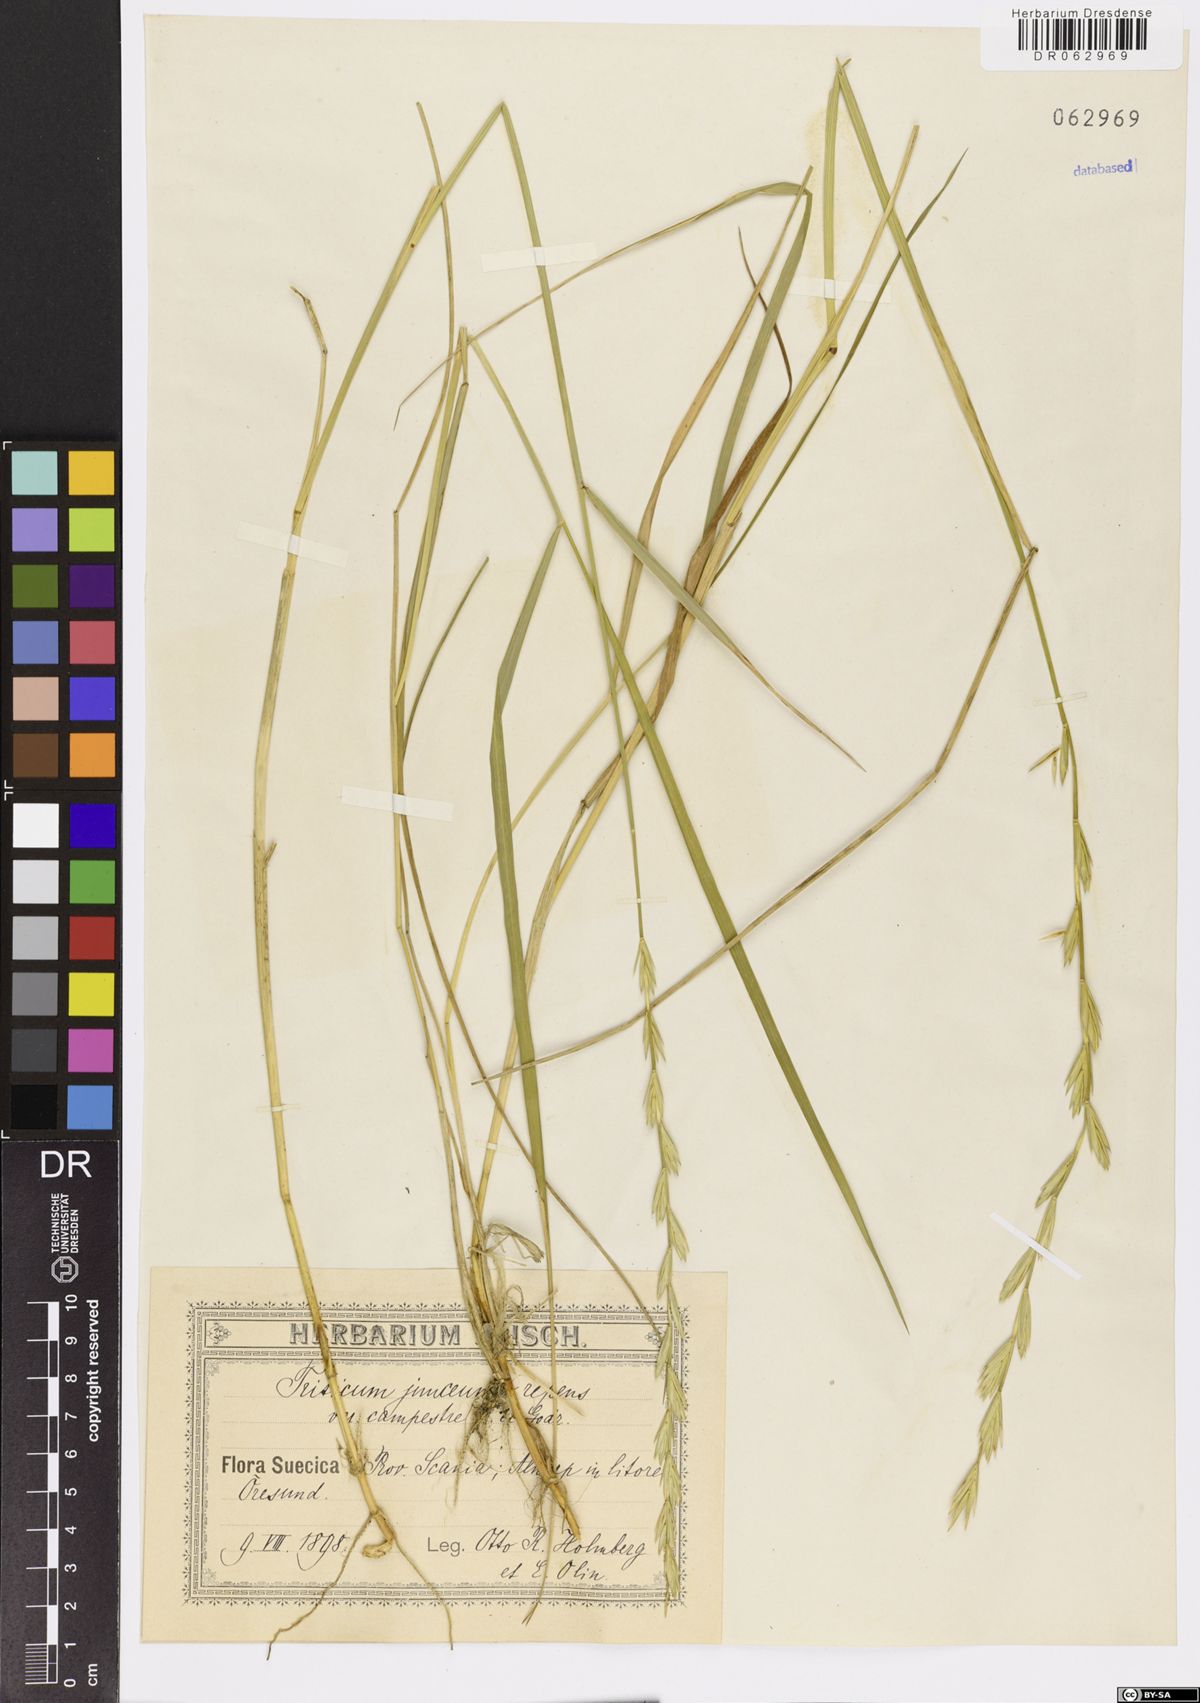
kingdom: Plantae
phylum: Tracheophyta
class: Liliopsida
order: Poales
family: Poaceae
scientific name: Poaceae
